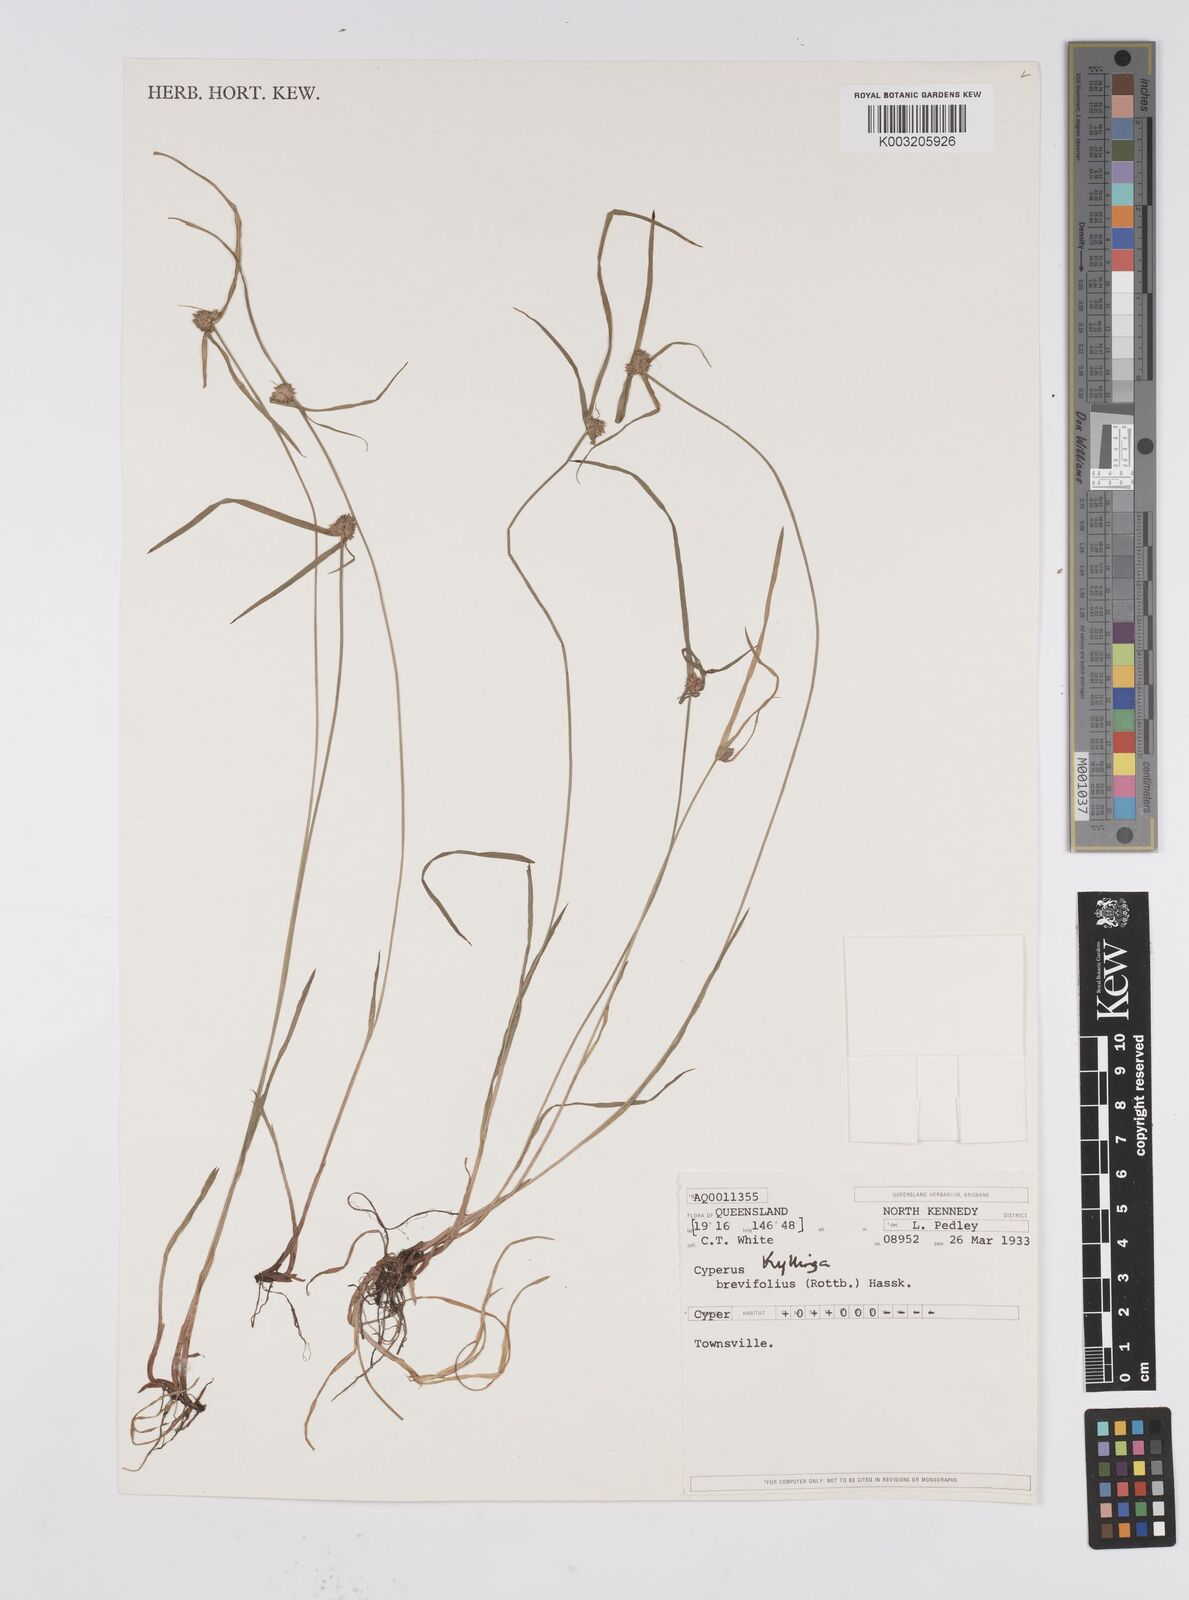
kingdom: Plantae
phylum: Tracheophyta
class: Liliopsida
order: Poales
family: Cyperaceae
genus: Cyperus
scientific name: Cyperus brevifolius
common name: Globe kyllinga
